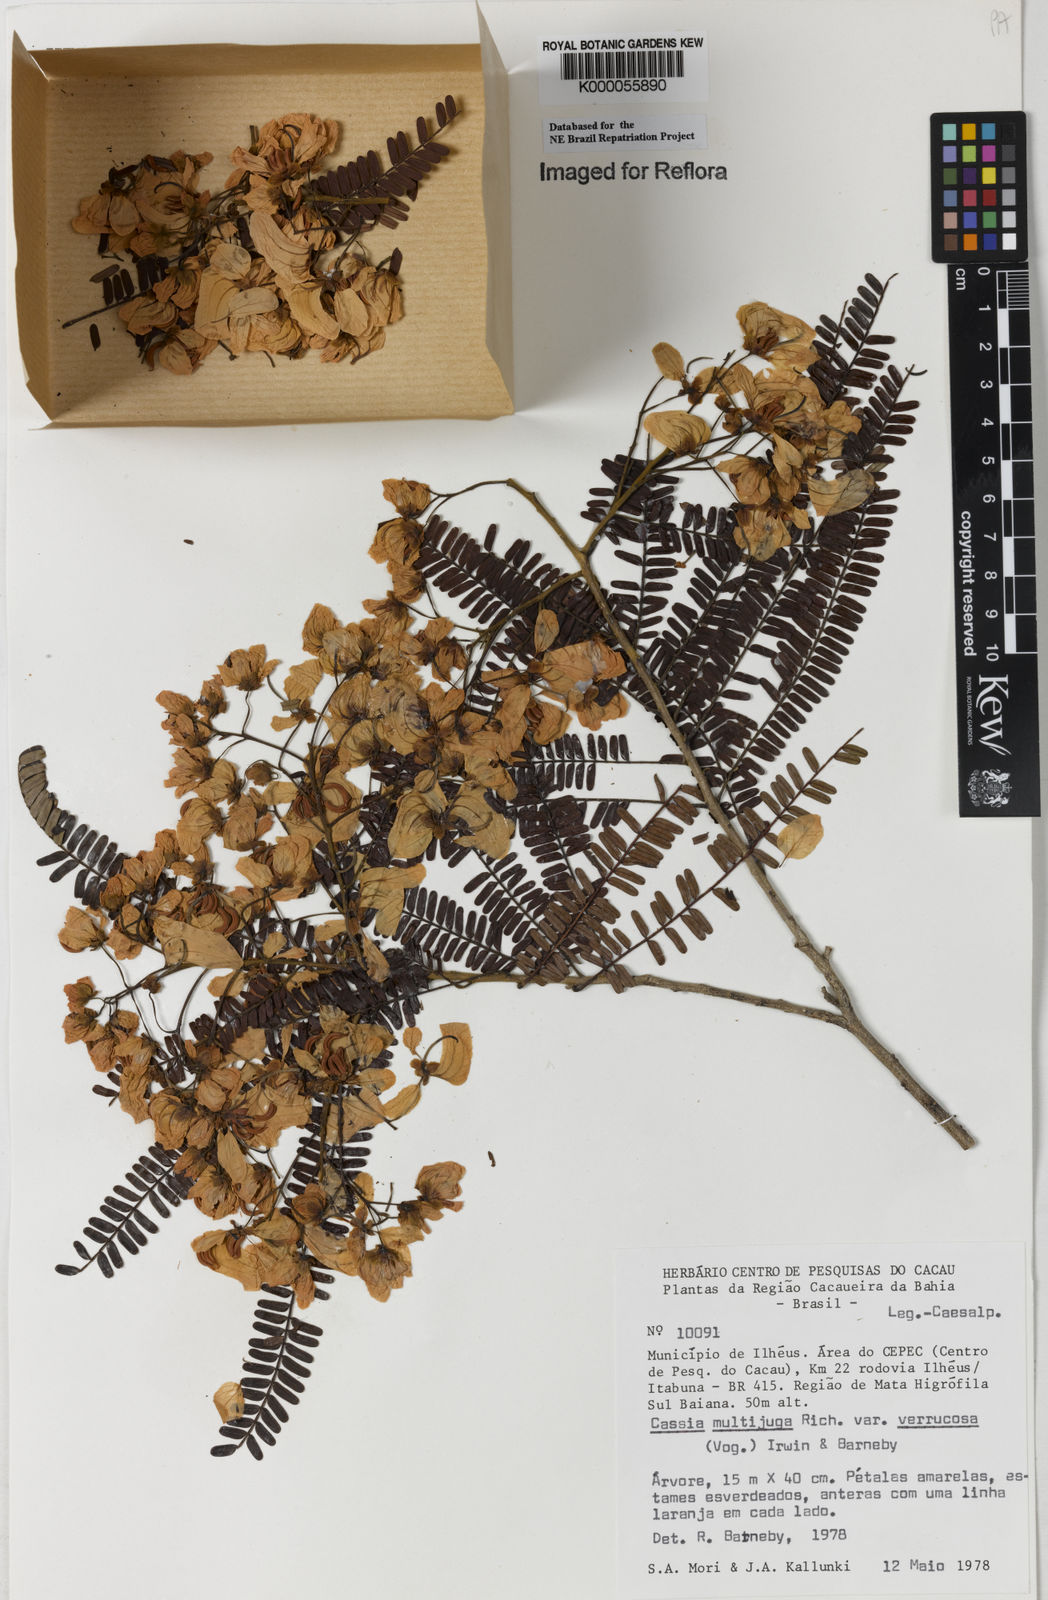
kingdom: Plantae
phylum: Tracheophyta
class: Magnoliopsida
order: Fabales
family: Fabaceae
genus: Senna
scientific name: Senna multijuga
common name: False sicklepod
